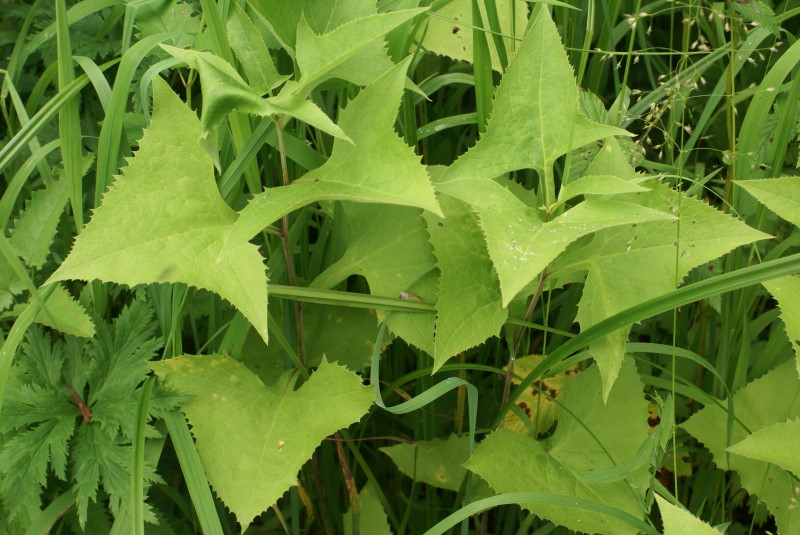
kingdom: Plantae
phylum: Tracheophyta
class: Magnoliopsida
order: Asterales
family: Asteraceae
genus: Parasenecio
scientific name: Parasenecio hastatus
